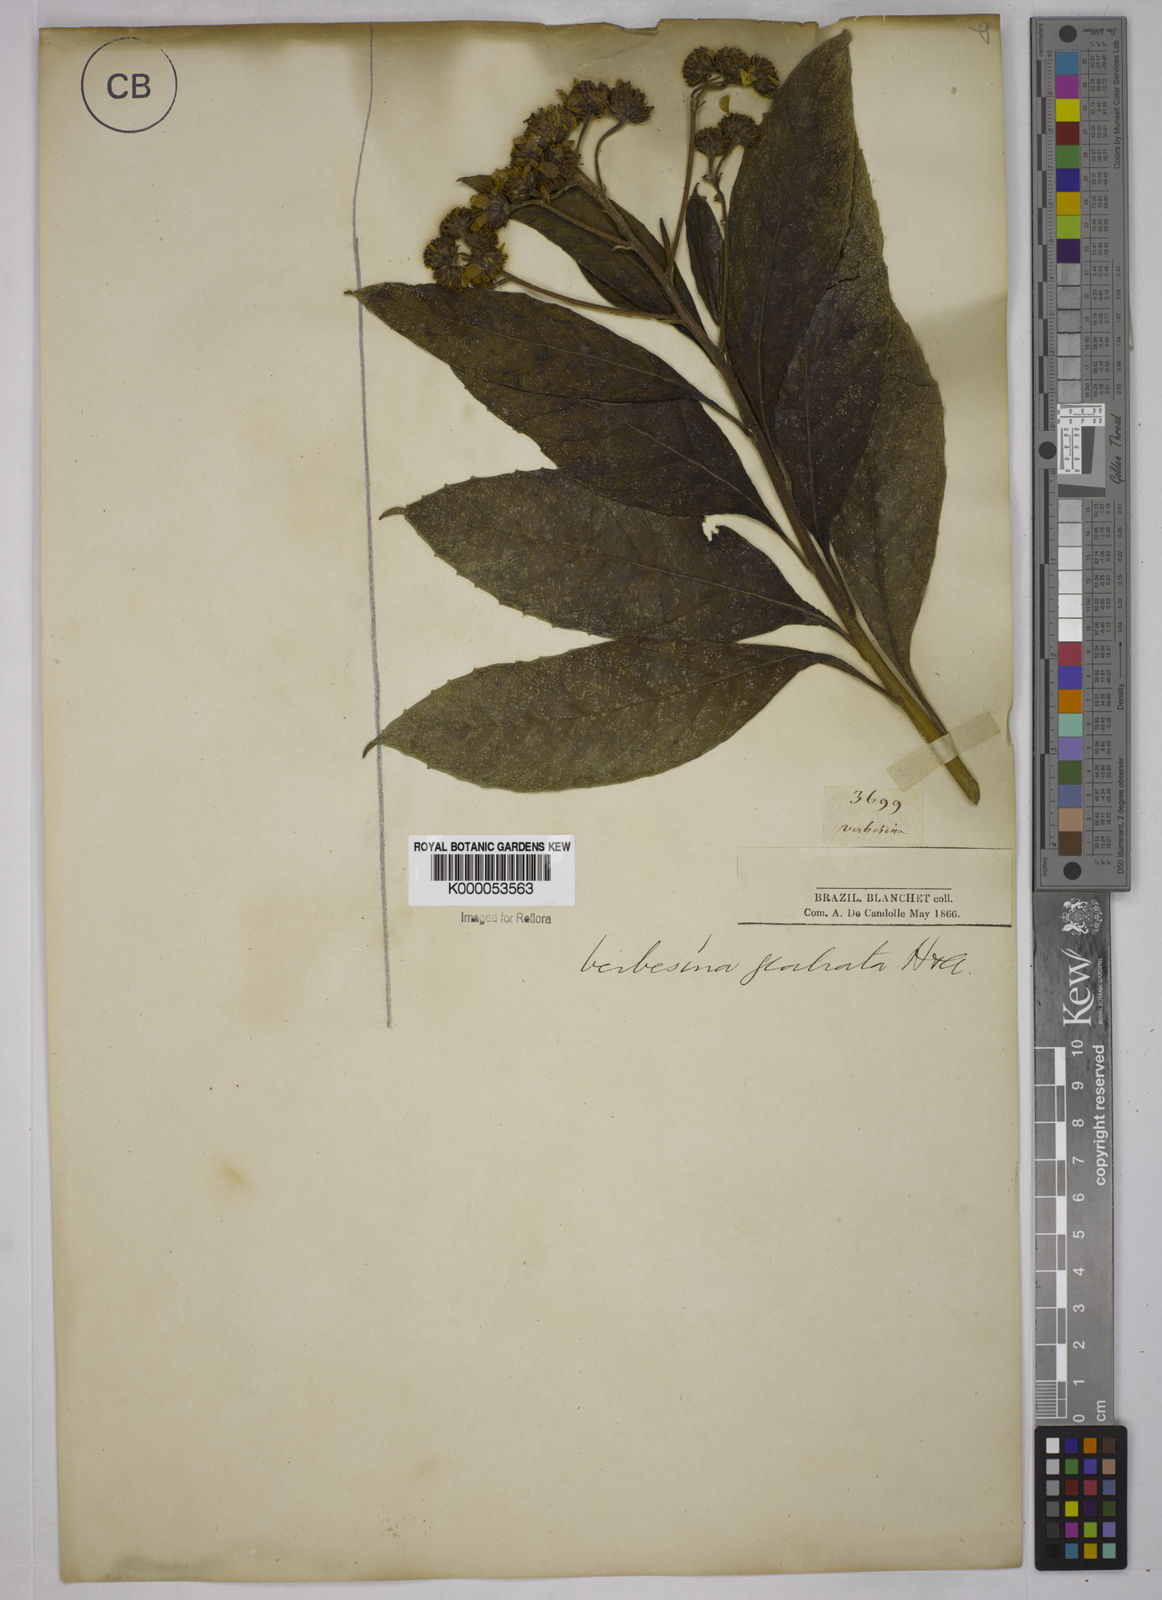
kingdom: Plantae
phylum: Tracheophyta
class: Magnoliopsida
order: Asterales
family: Asteraceae
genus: Verbesina
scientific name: Verbesina glabrata
